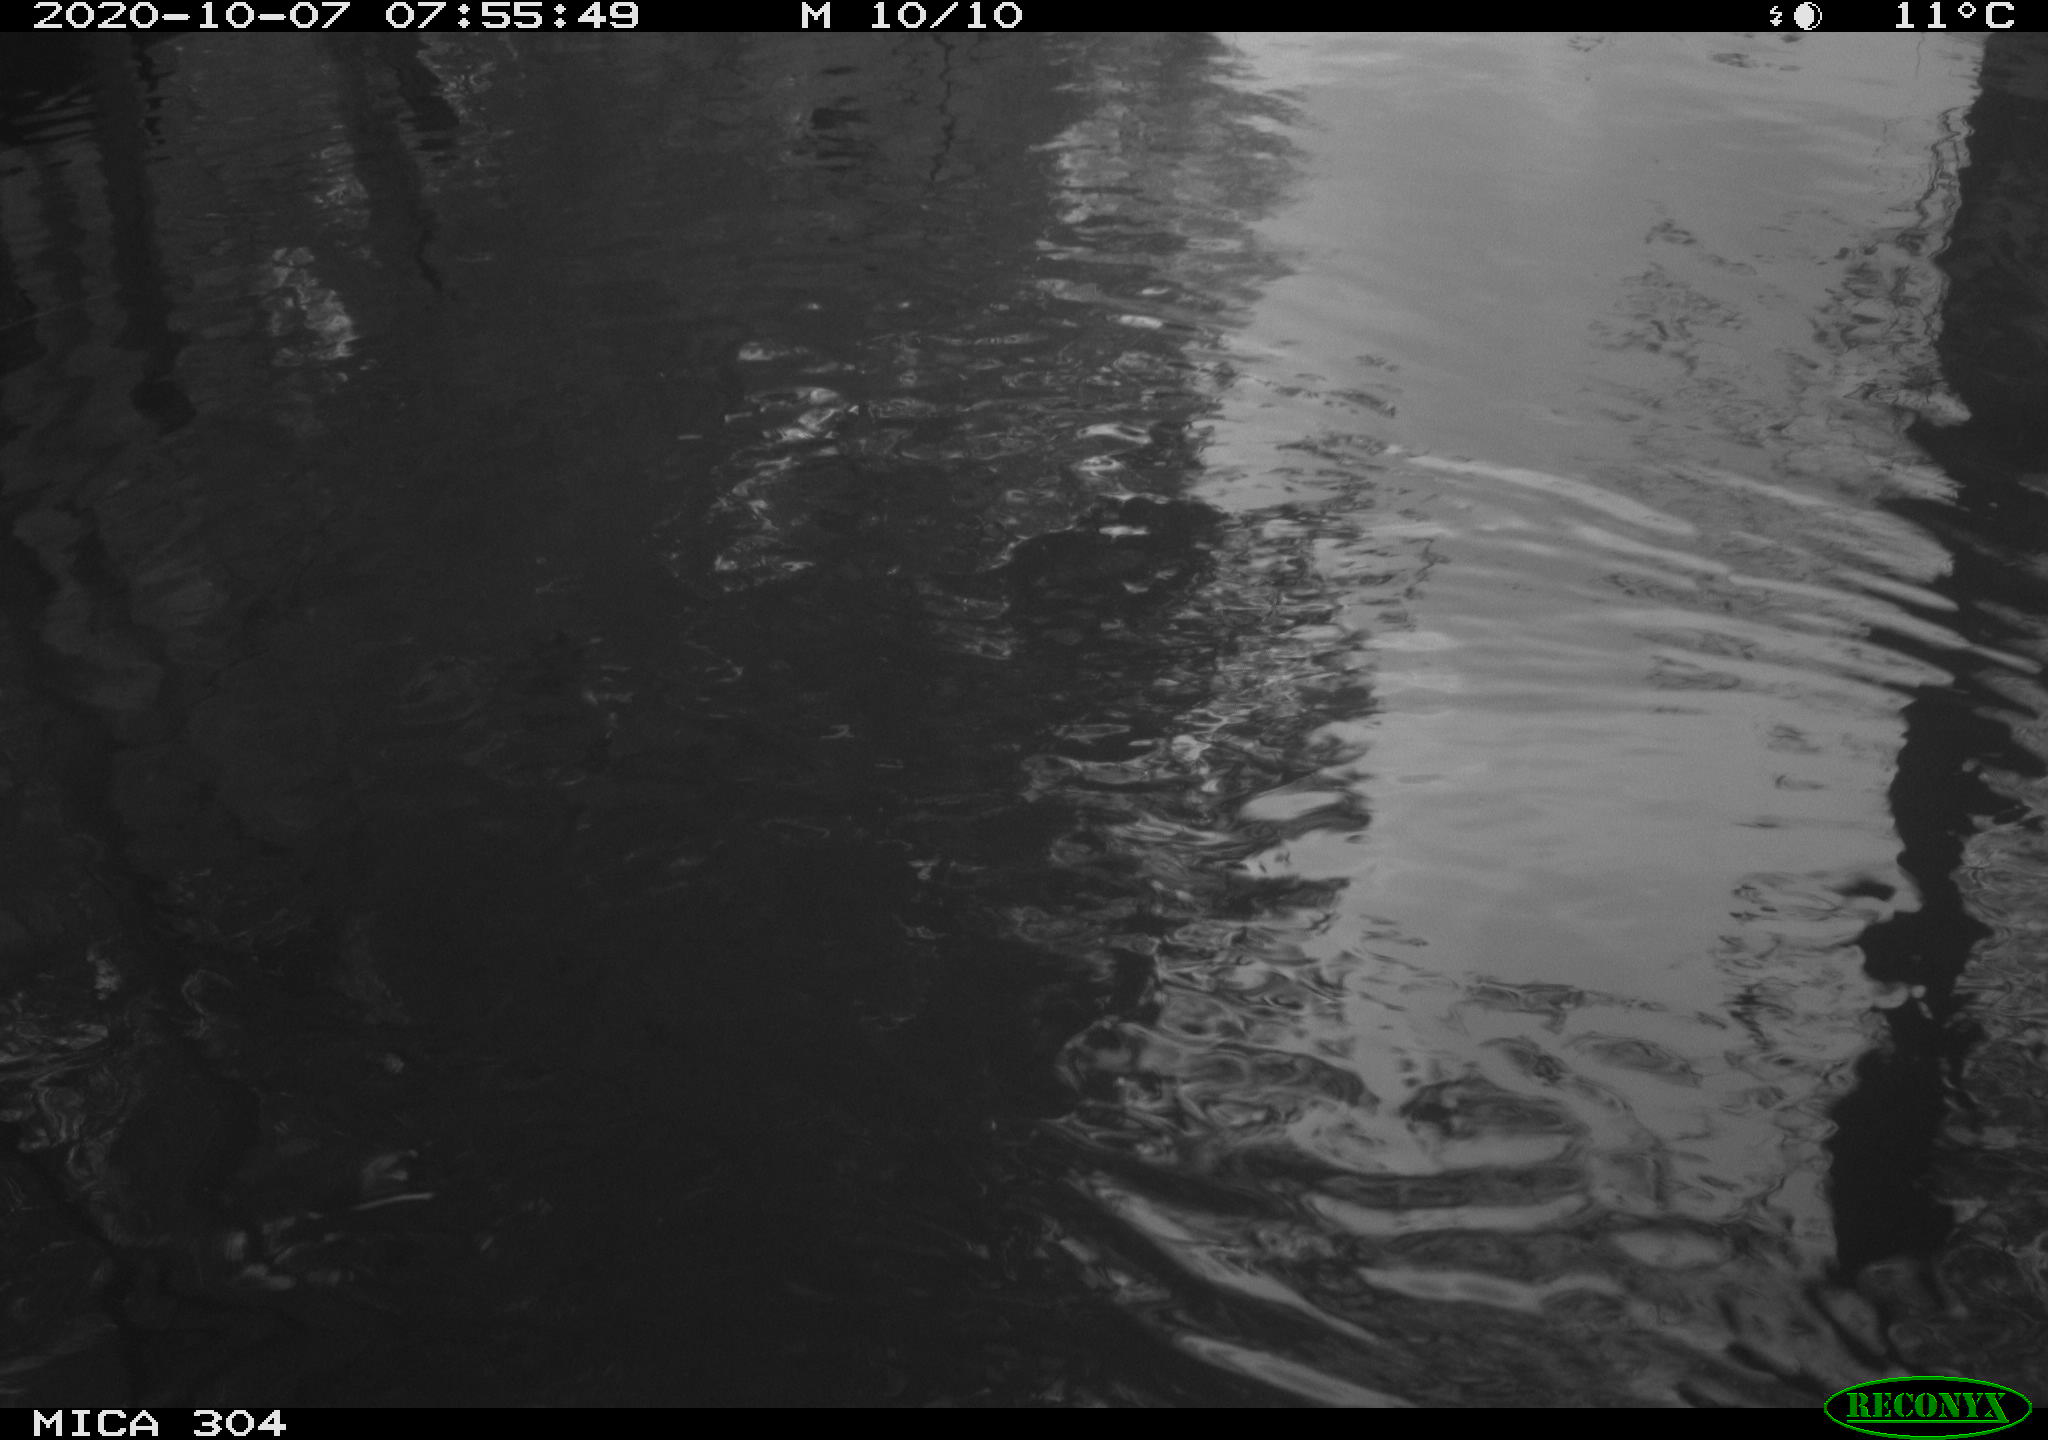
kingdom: Animalia
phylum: Chordata
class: Aves
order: Gruiformes
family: Rallidae
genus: Gallinula
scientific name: Gallinula chloropus
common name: Common moorhen
